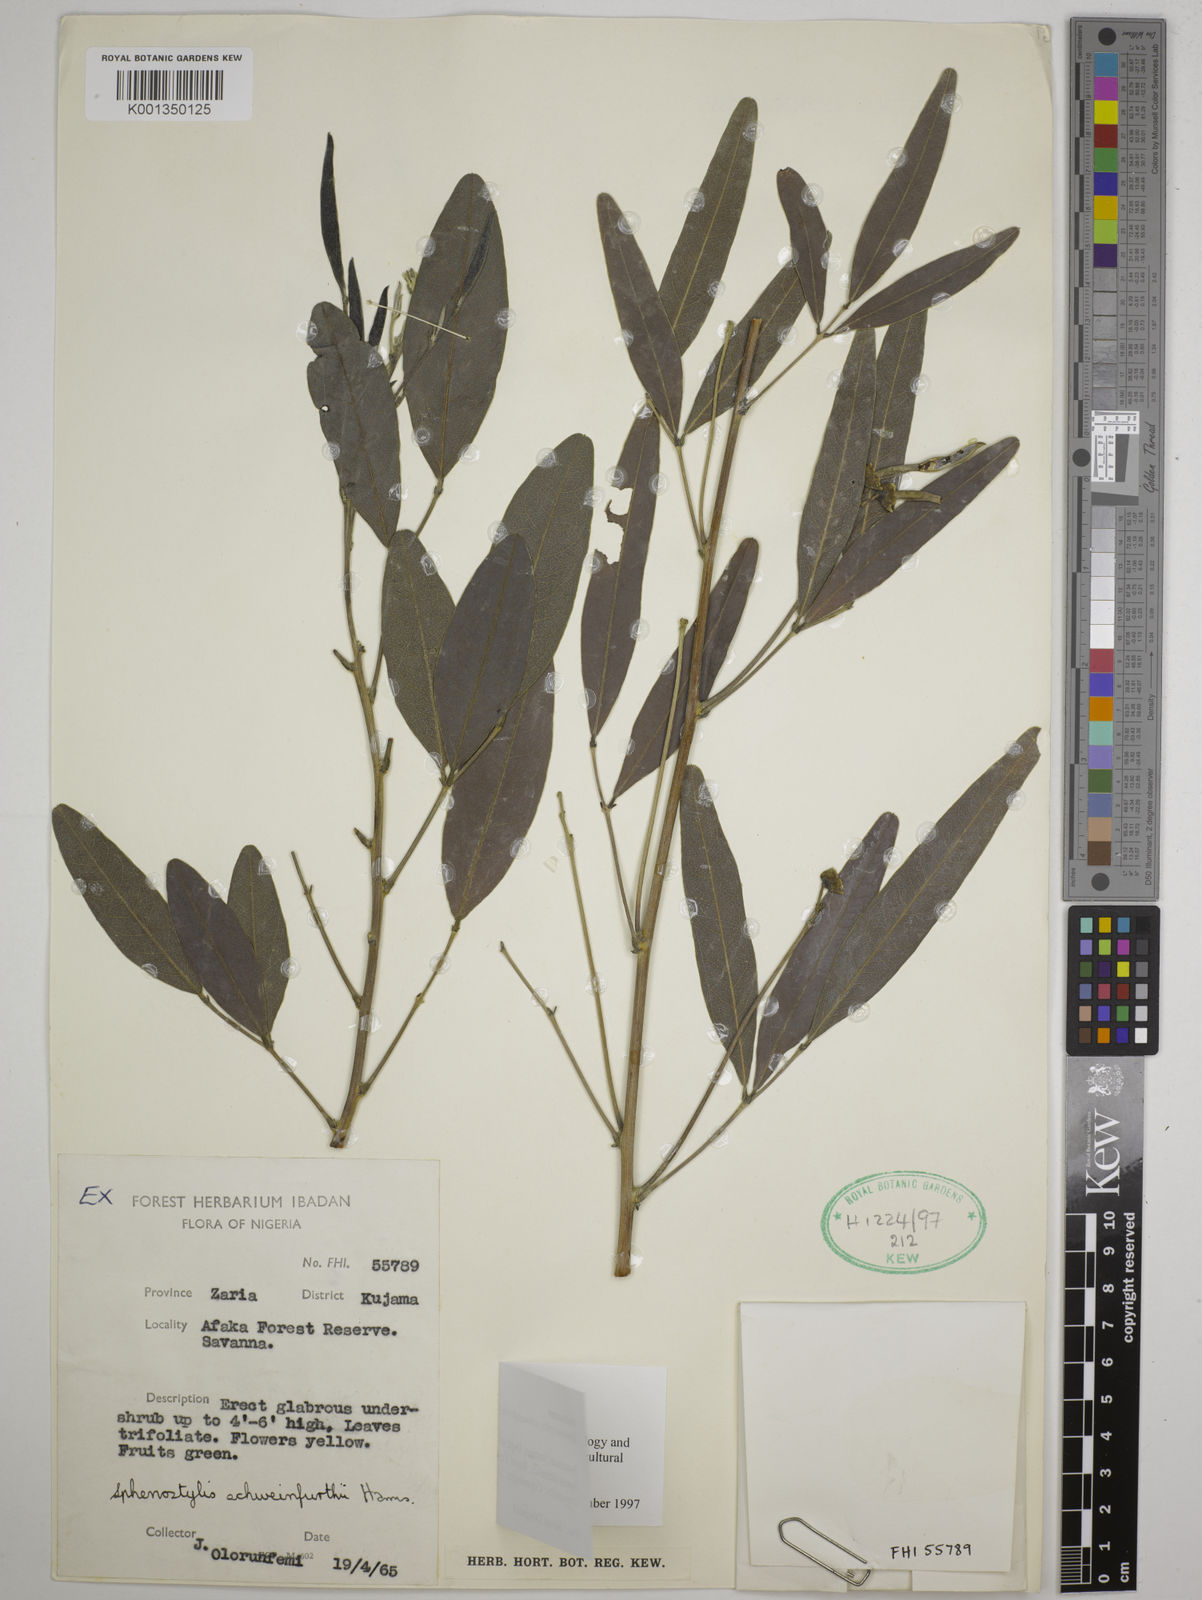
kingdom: Plantae
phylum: Tracheophyta
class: Magnoliopsida
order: Fabales
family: Fabaceae
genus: Sphenostylis
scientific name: Sphenostylis schweinfurthii
